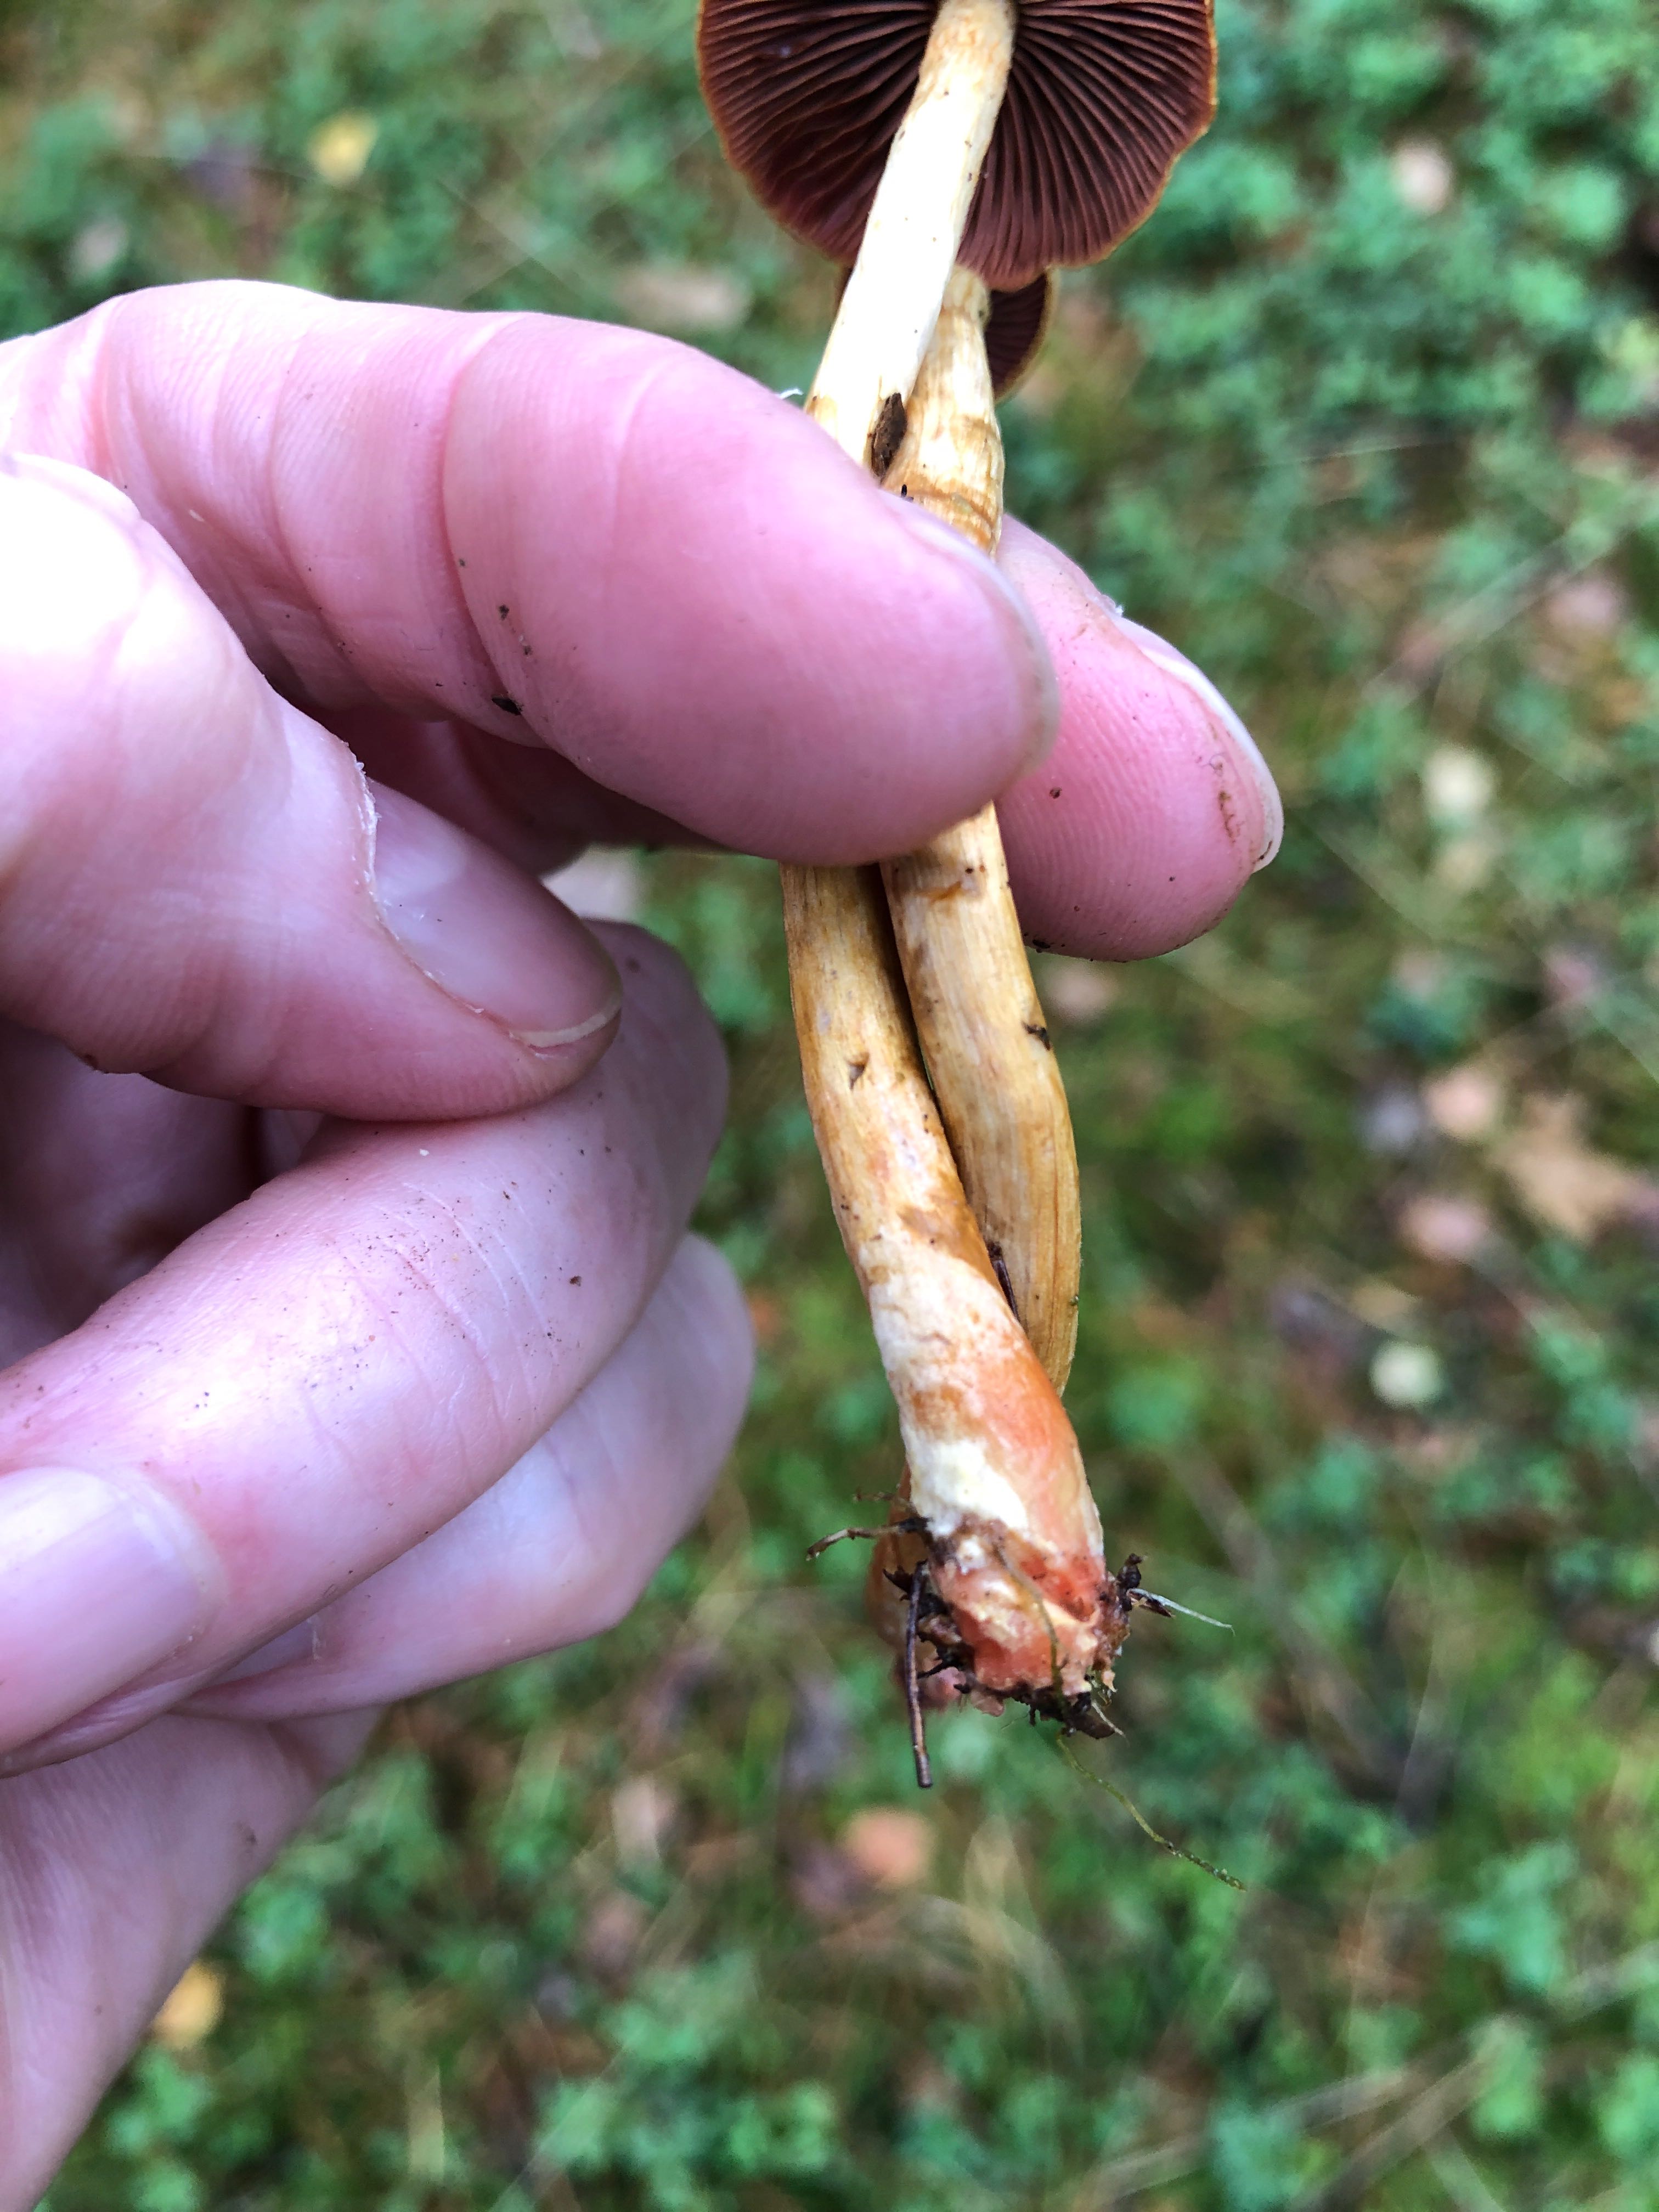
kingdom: Fungi
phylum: Basidiomycota
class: Agaricomycetes
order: Agaricales
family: Cortinariaceae
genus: Cortinarius
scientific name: Cortinarius
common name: cinnoberbladet slørhat
